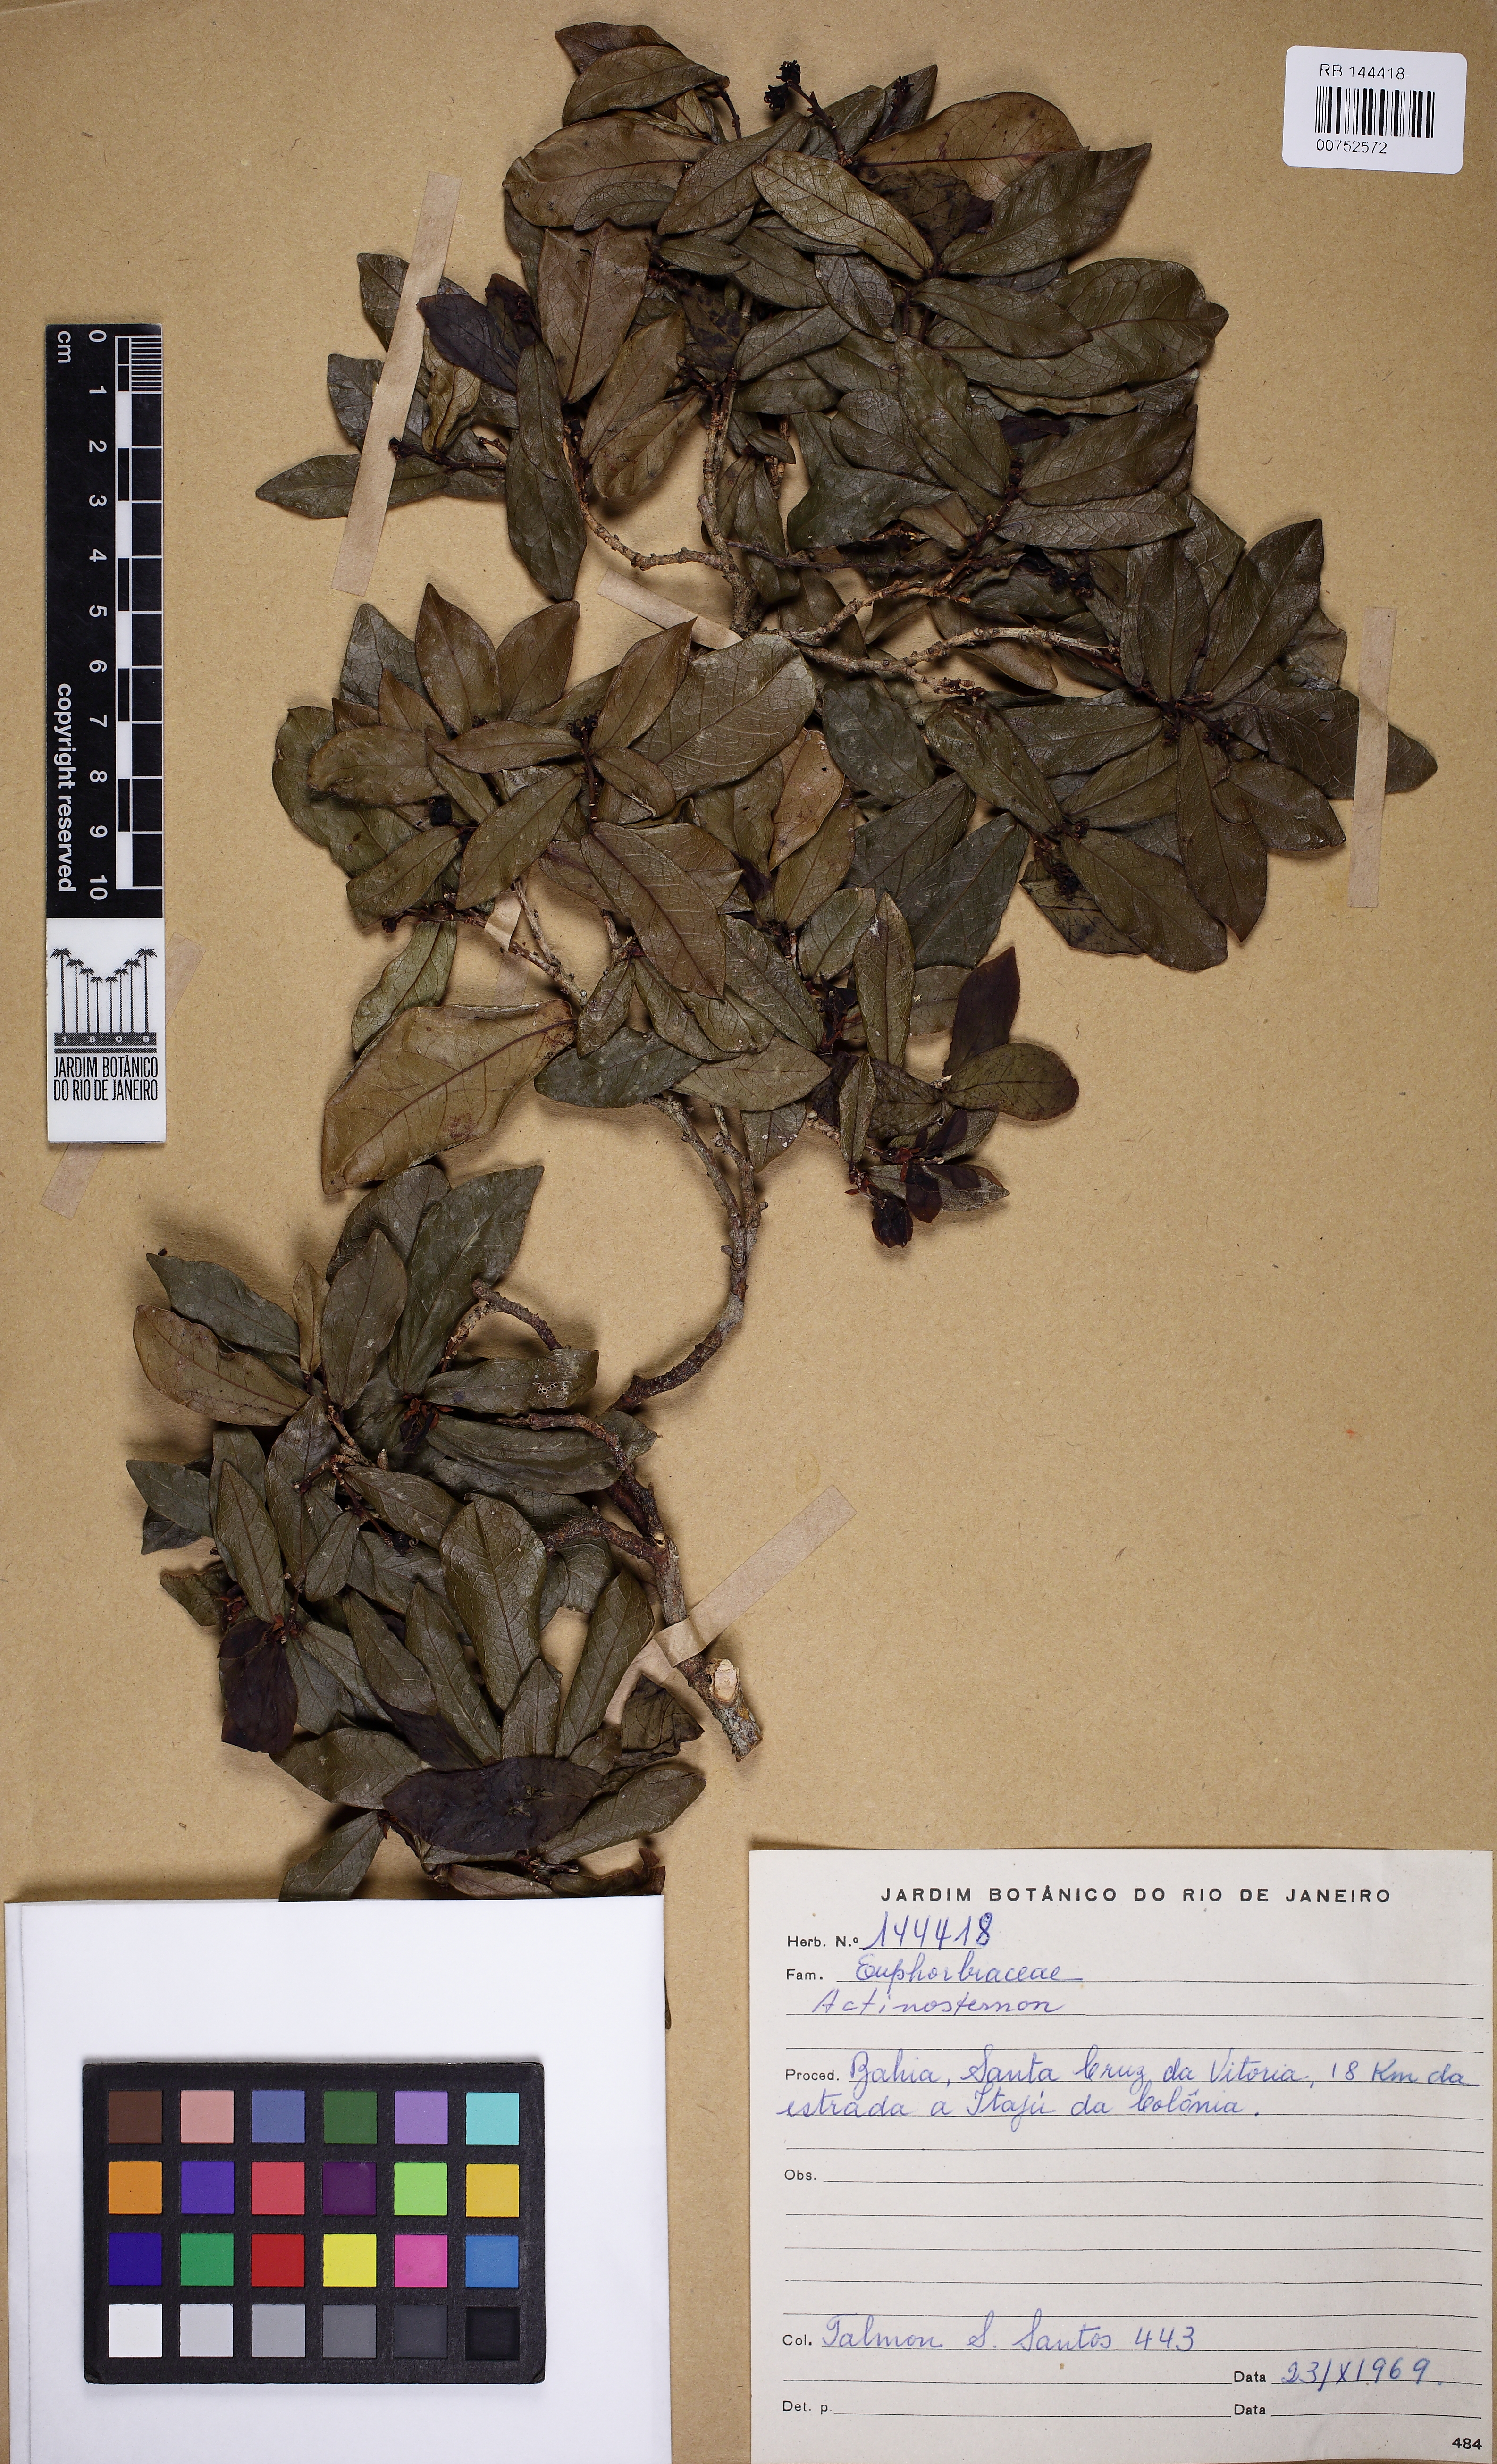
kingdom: Plantae
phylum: Tracheophyta
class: Magnoliopsida
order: Malpighiales
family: Euphorbiaceae
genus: Actinostemon
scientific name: Actinostemon
